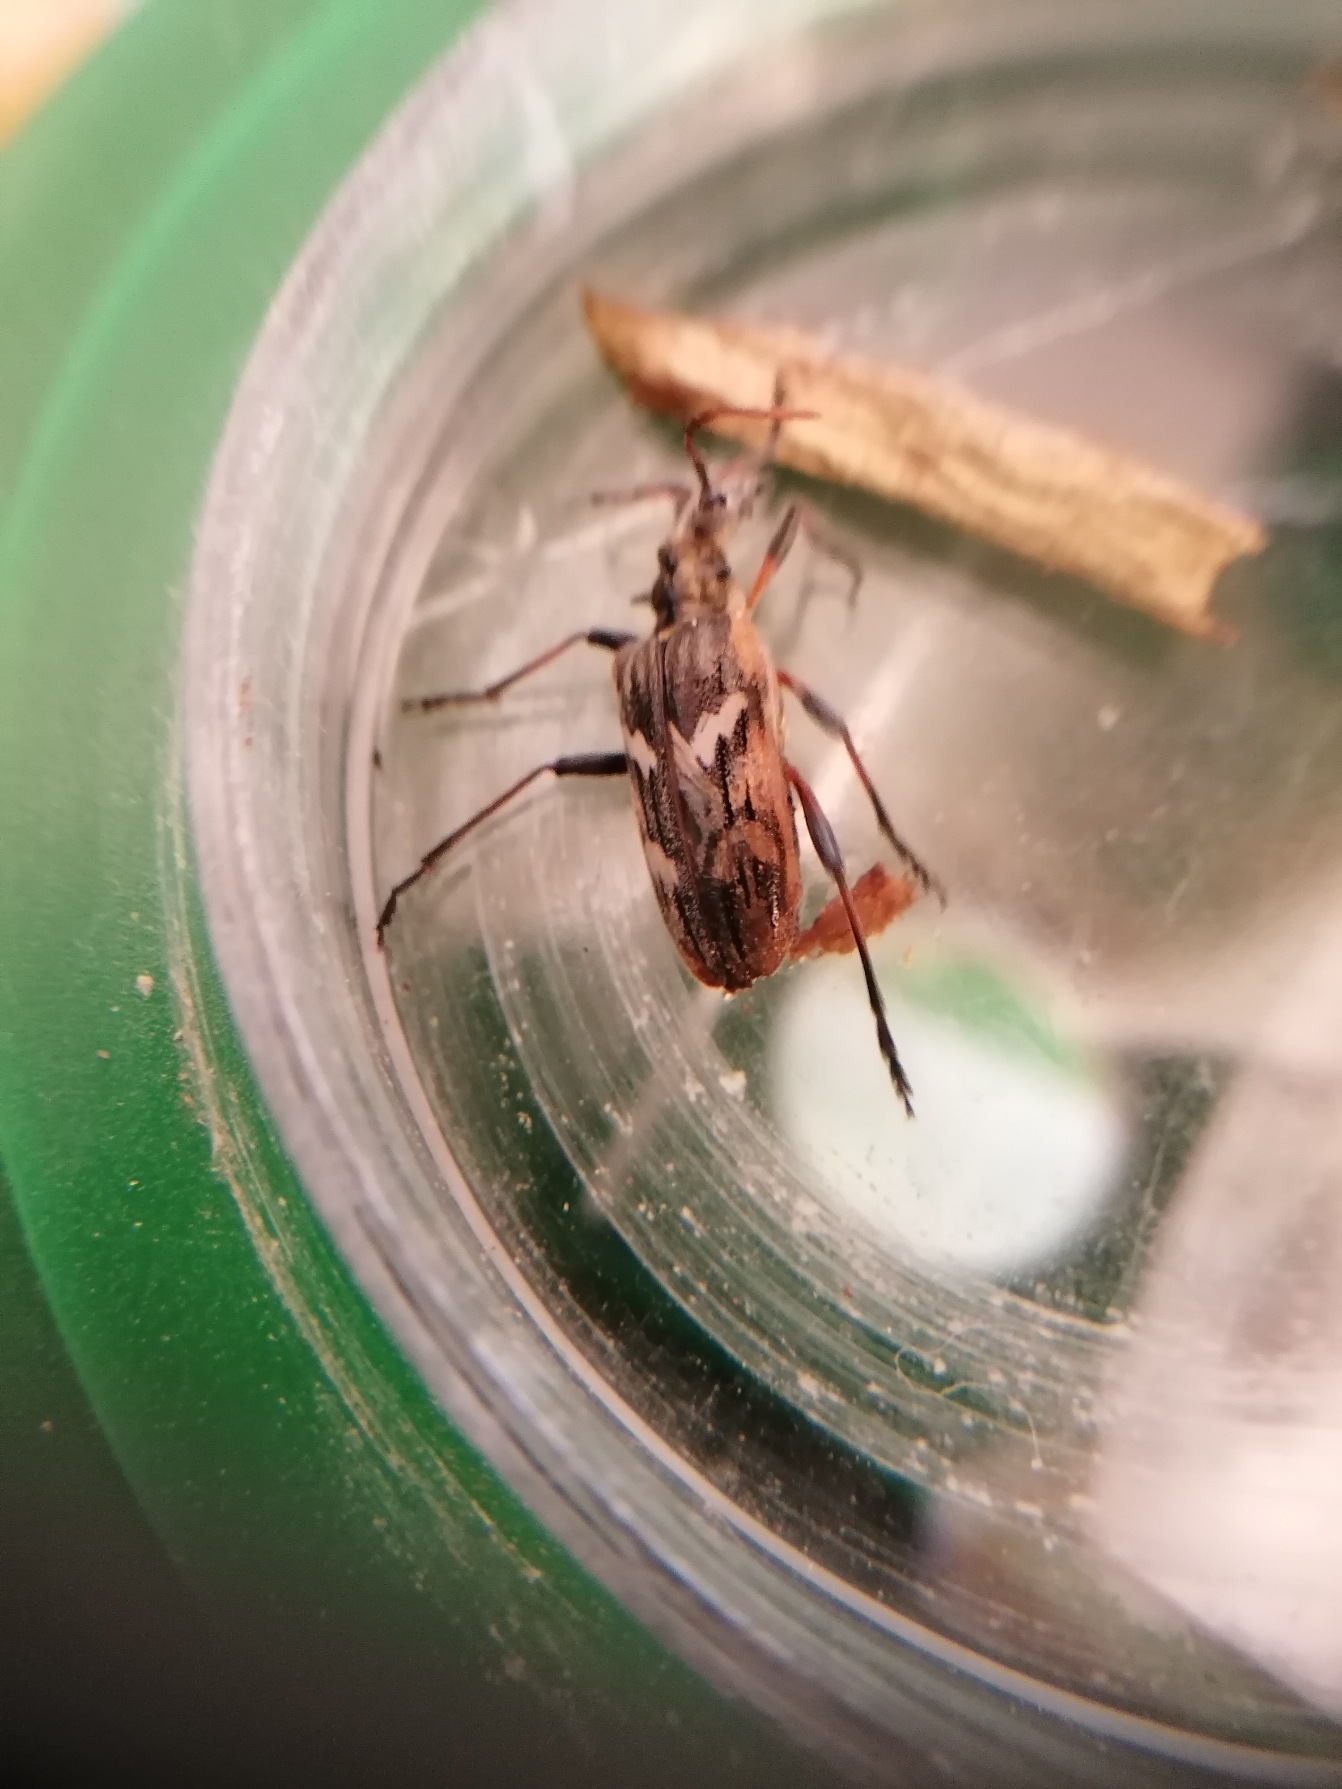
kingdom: Animalia
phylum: Arthropoda
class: Insecta
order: Coleoptera
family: Cerambycidae
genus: Rhagium
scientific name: Rhagium bifasciatum
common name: Båndet tandbuk
